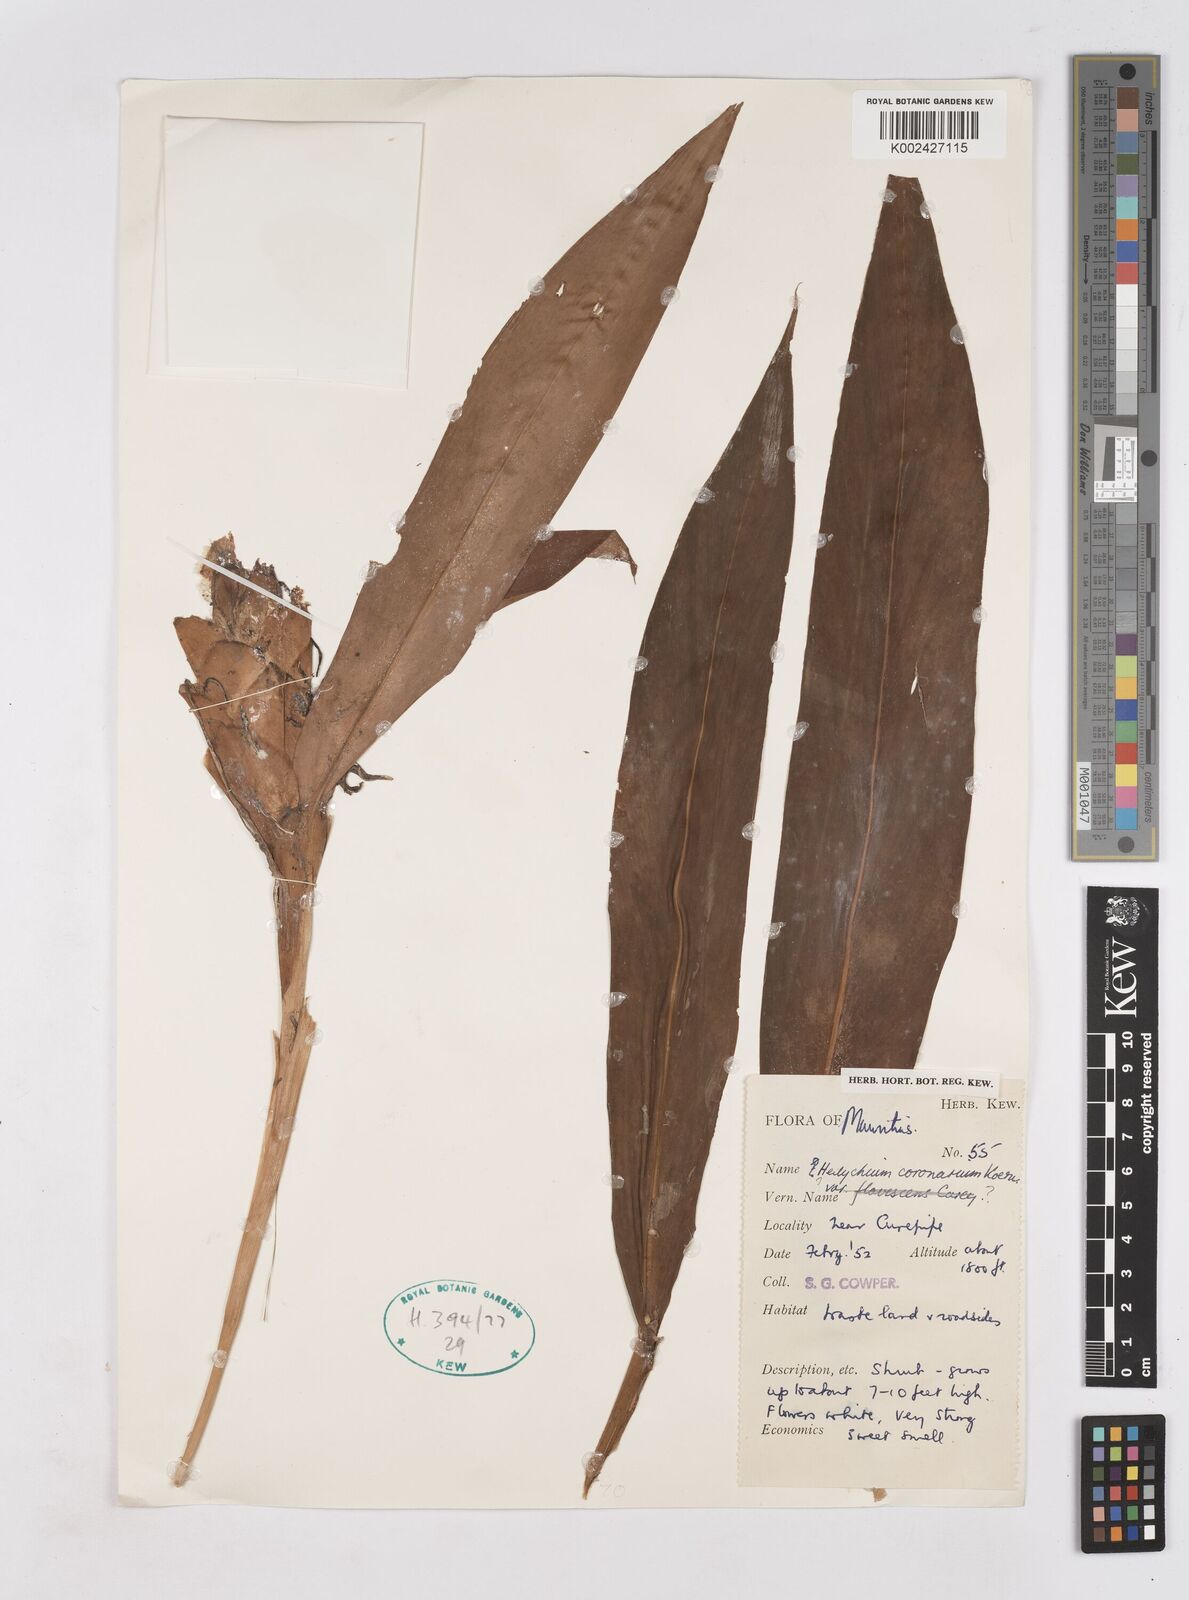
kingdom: Plantae
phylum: Tracheophyta
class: Liliopsida
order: Zingiberales
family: Zingiberaceae
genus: Hedychium
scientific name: Hedychium coronarium
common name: White garland-lily
